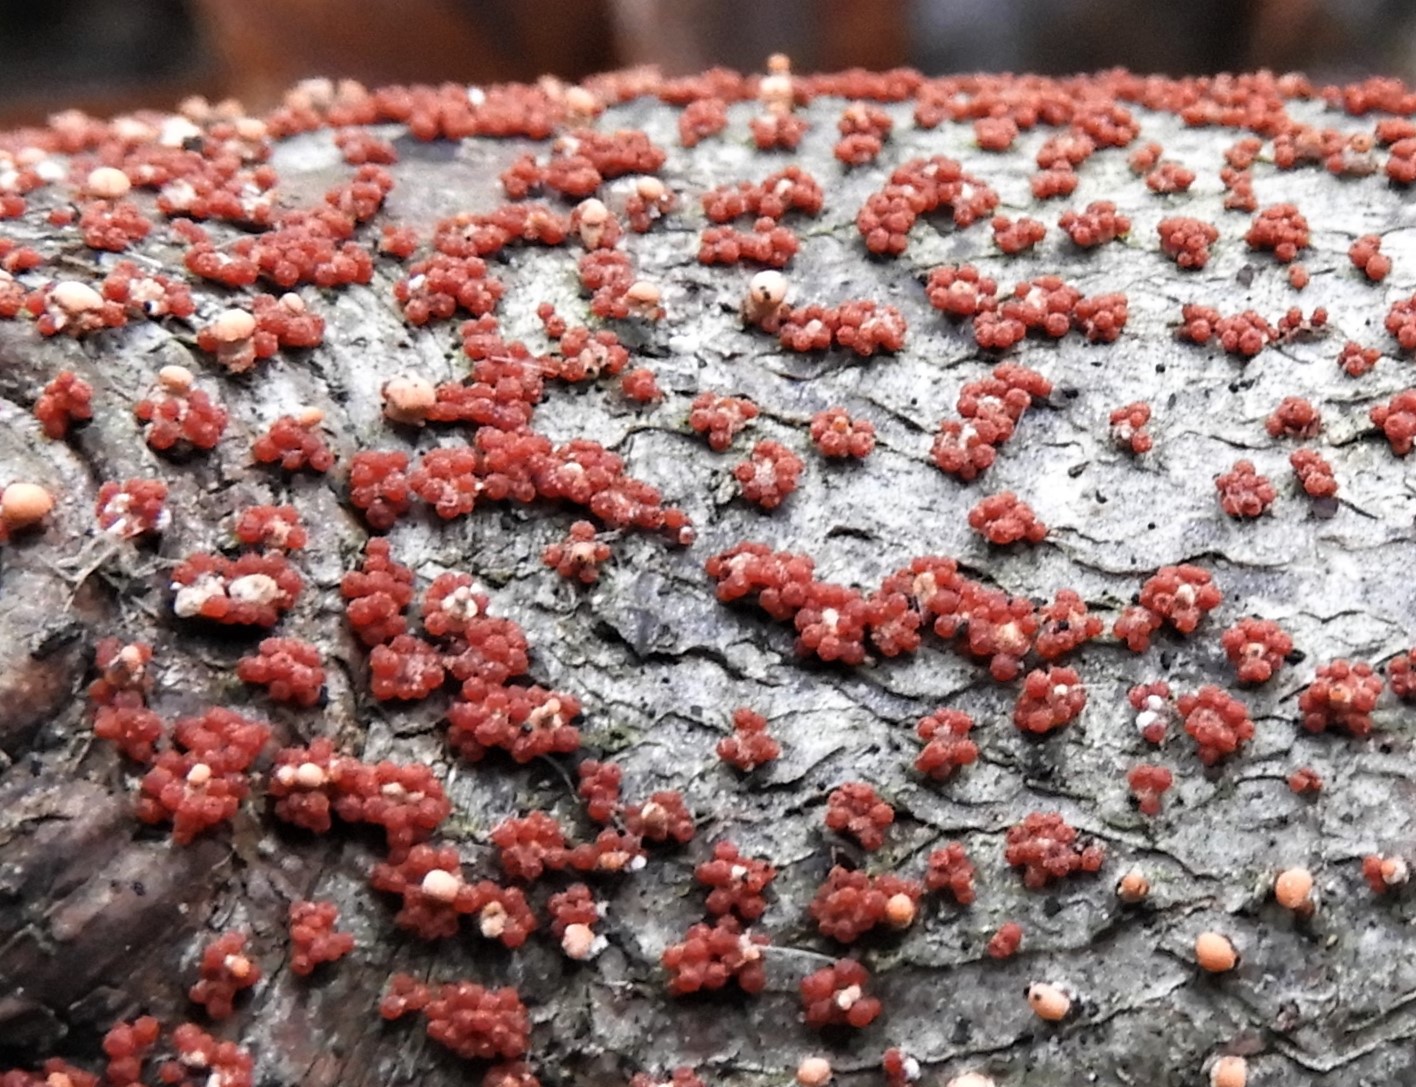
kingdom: Fungi
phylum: Ascomycota
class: Sordariomycetes
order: Hypocreales
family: Nectriaceae
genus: Nectria
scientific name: Nectria cinnabarina
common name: almindelig cinnobersvamp
